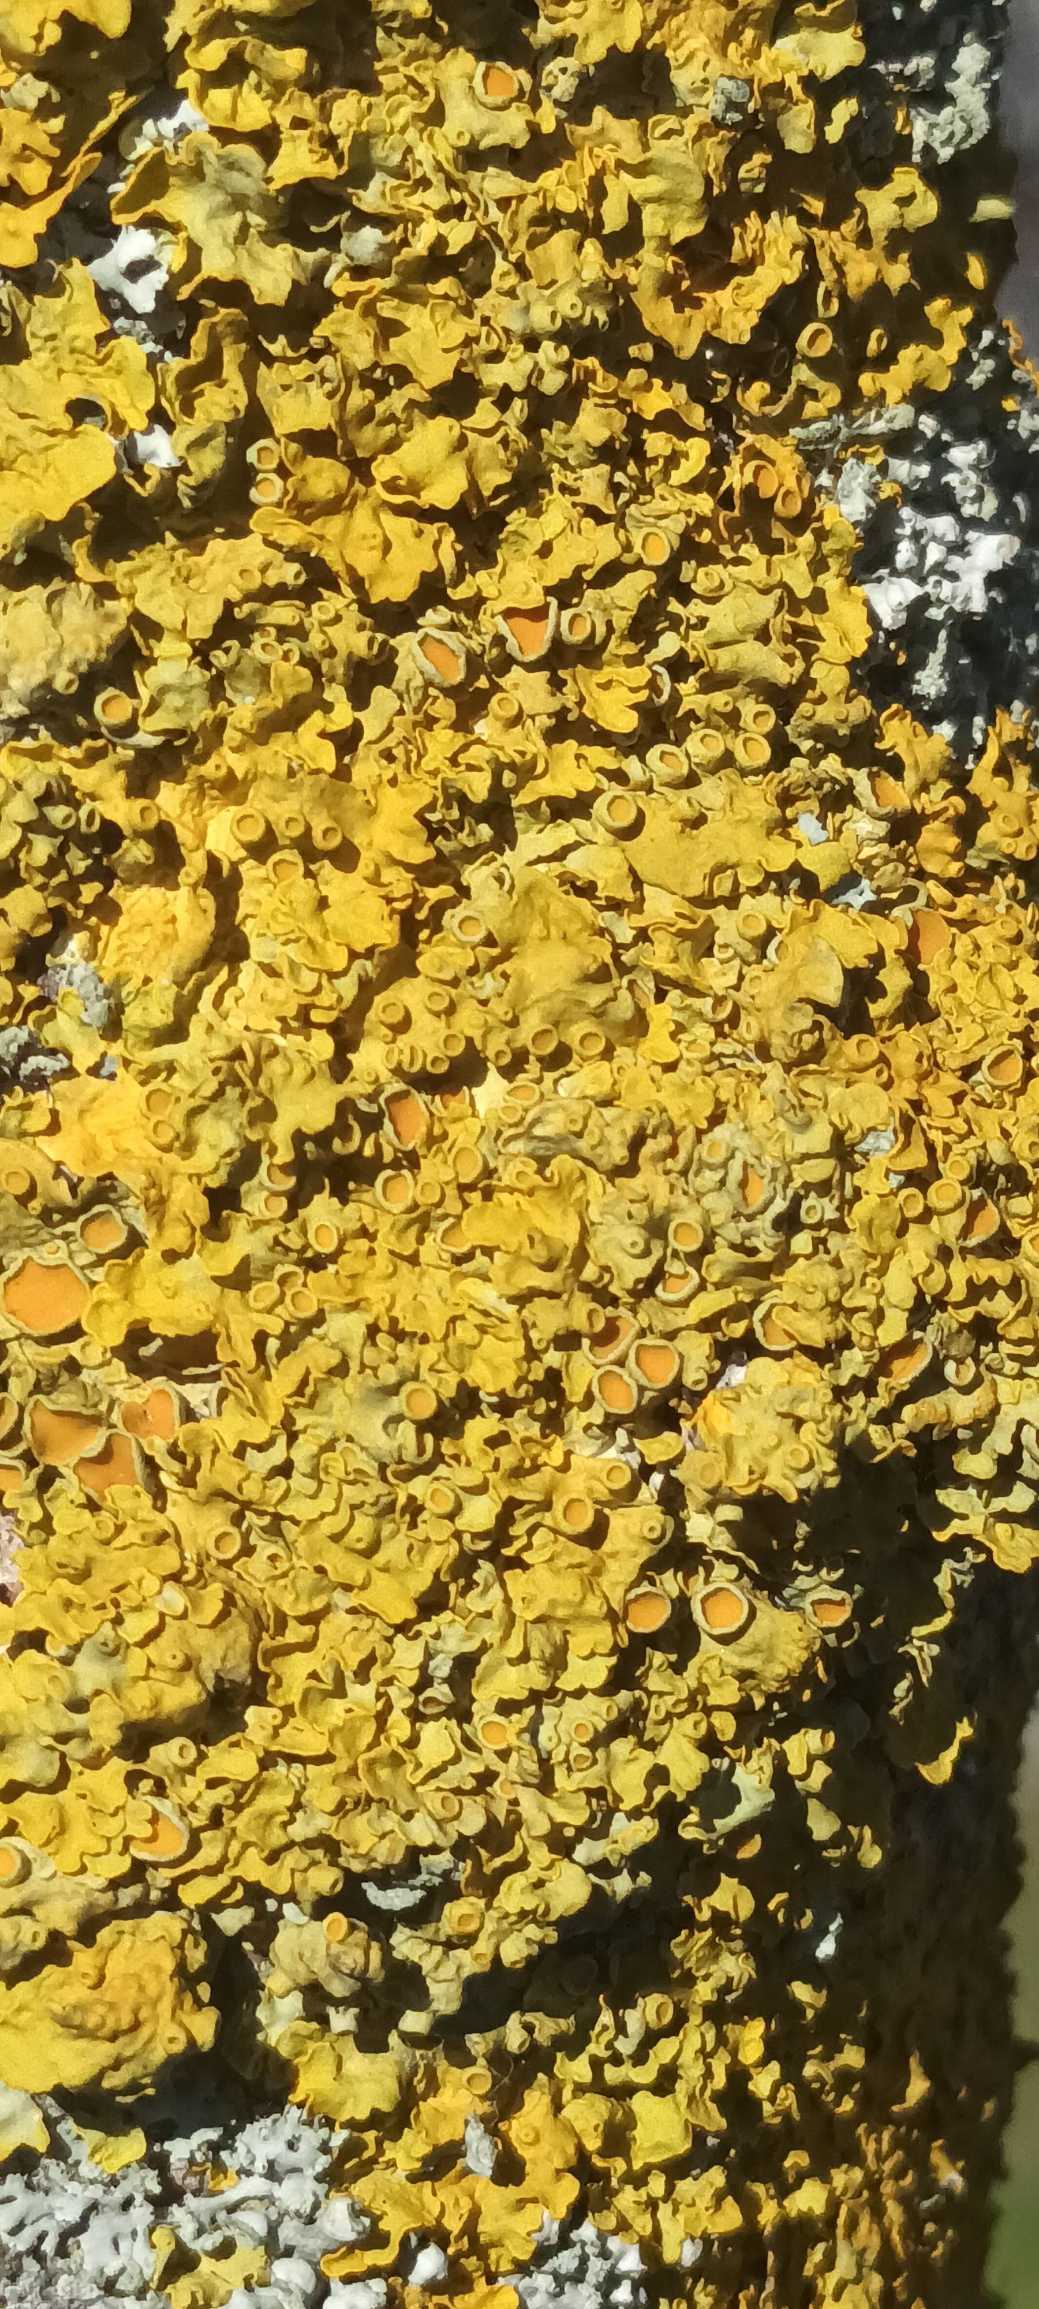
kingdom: Fungi
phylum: Ascomycota
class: Lecanoromycetes
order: Teloschistales
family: Teloschistaceae
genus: Xanthoria
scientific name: Xanthoria parietina
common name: Almindelig væggelav
